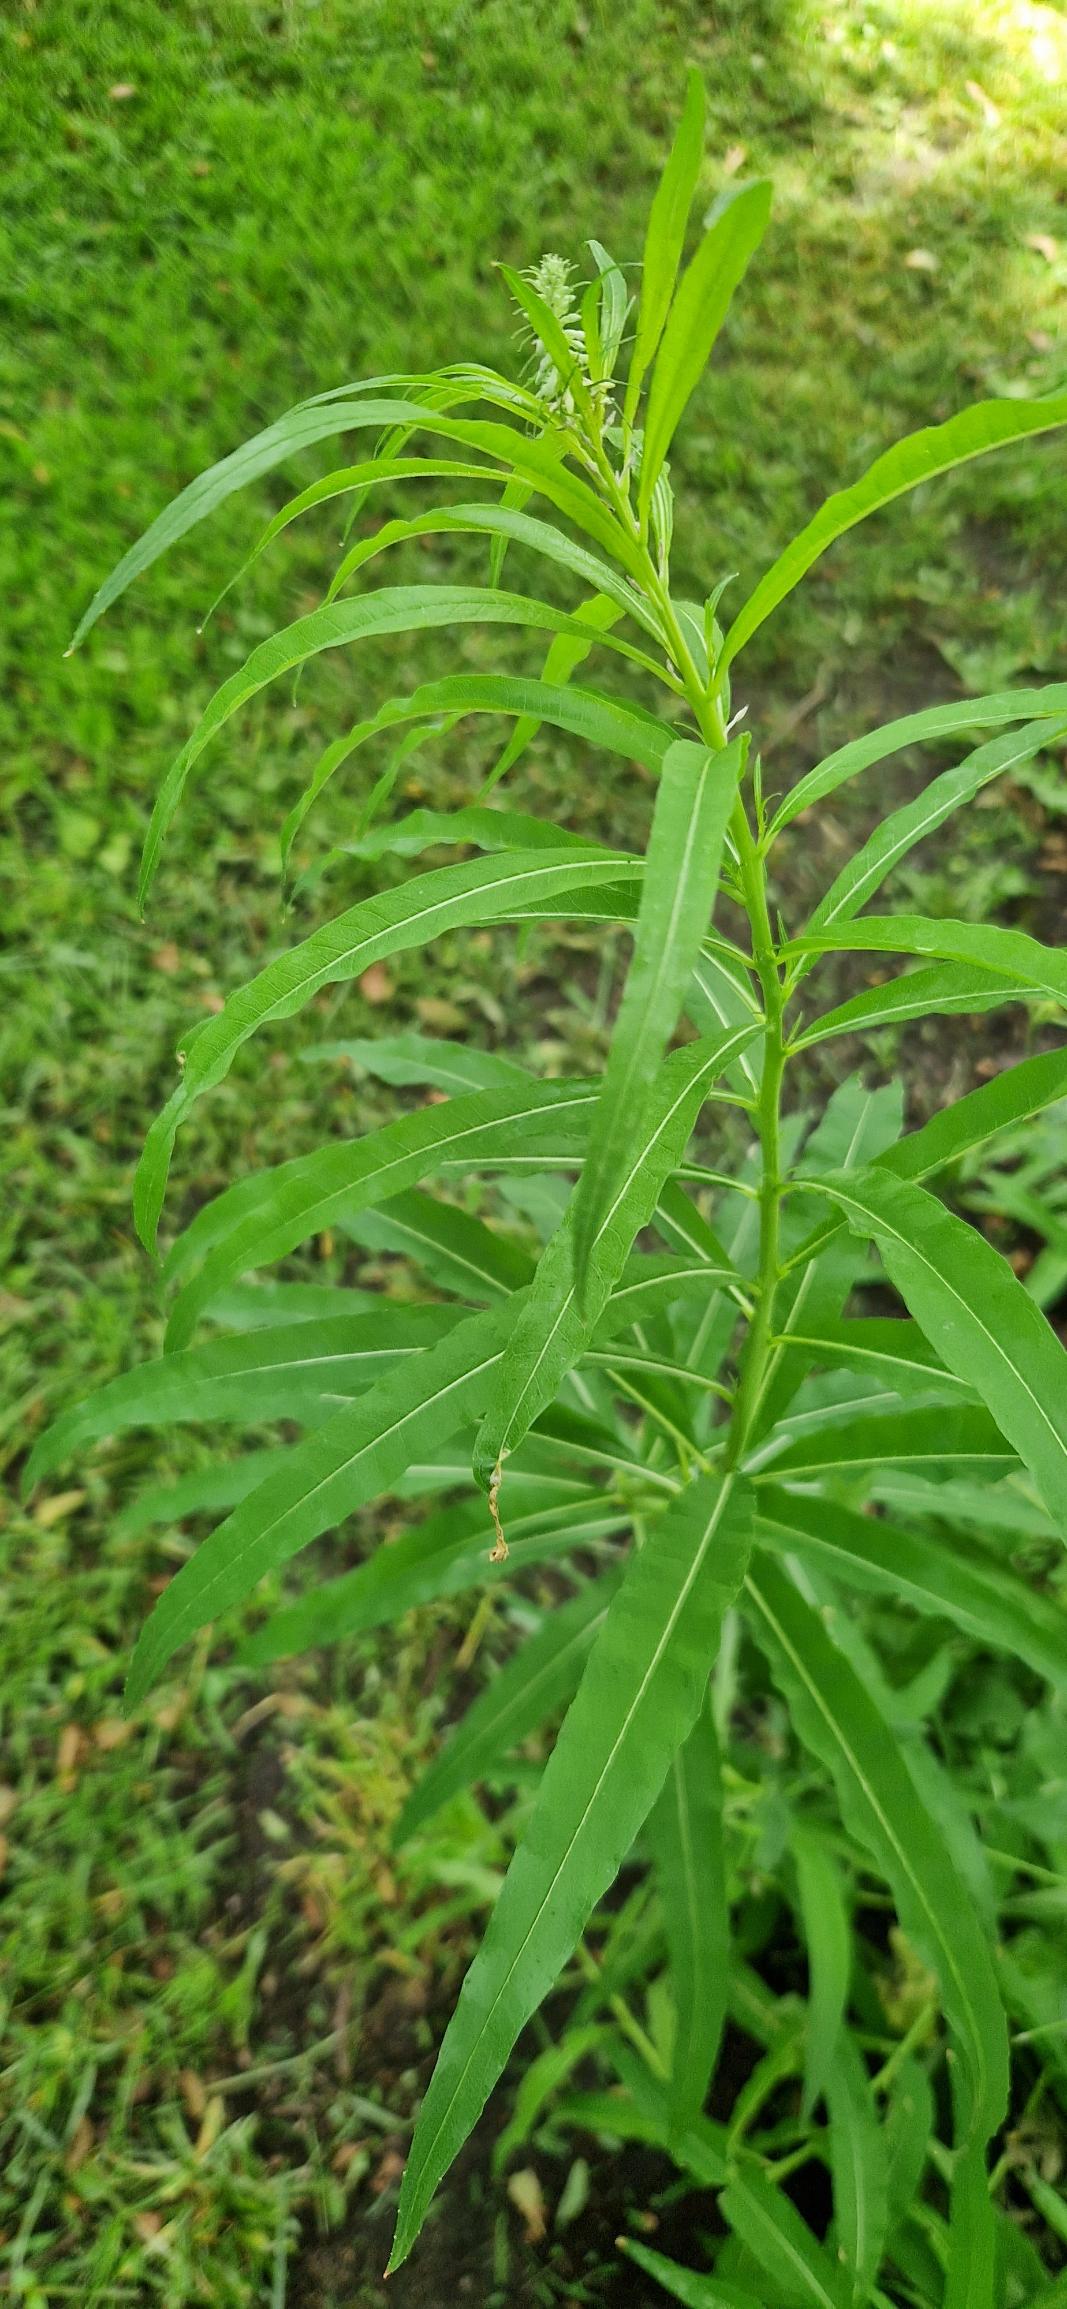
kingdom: Plantae
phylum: Tracheophyta
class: Magnoliopsida
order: Myrtales
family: Onagraceae
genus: Chamaenerion
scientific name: Chamaenerion angustifolium
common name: Gederams
